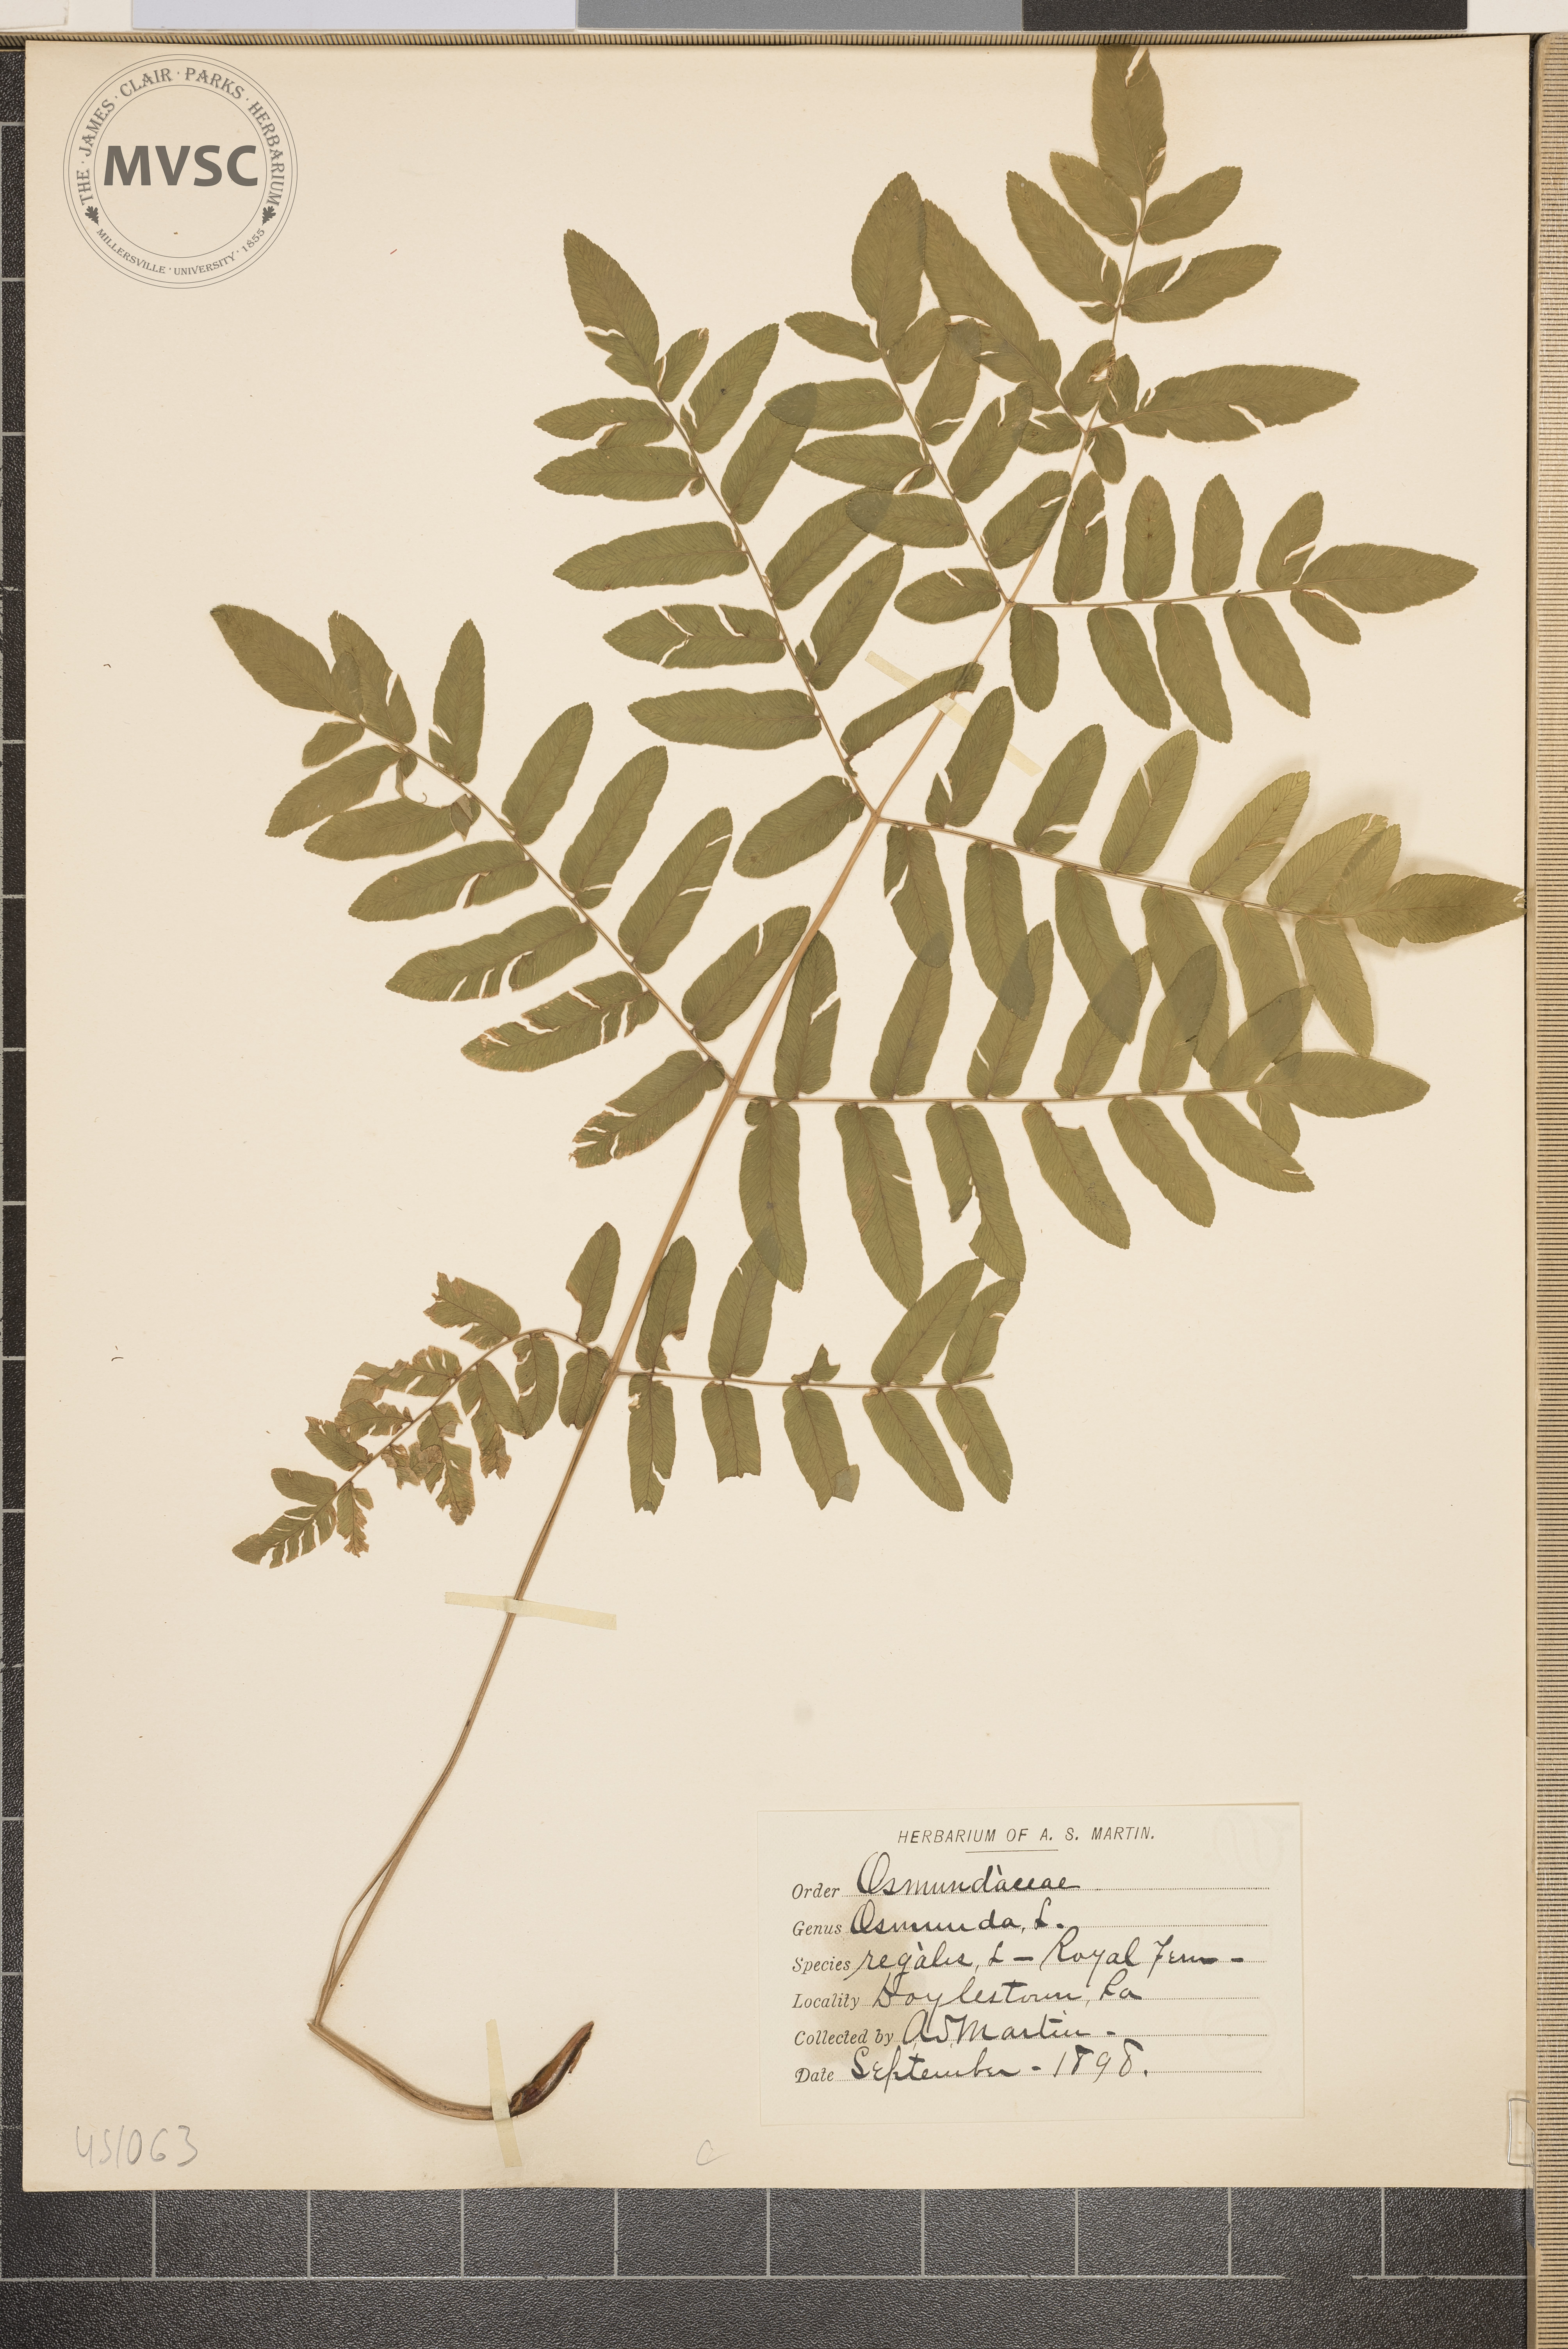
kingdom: Plantae
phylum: Tracheophyta
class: Polypodiopsida
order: Osmundales
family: Osmundaceae
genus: Osmunda
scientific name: Osmunda regalis
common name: Royal Fern
